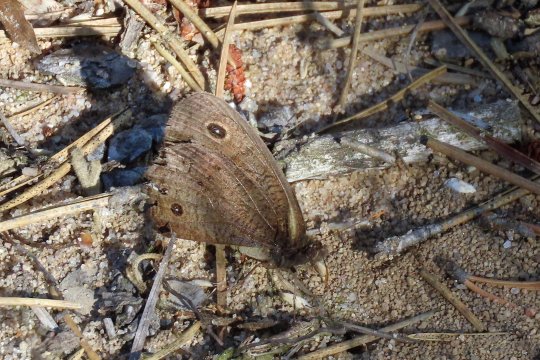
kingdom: Animalia
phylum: Arthropoda
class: Insecta
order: Lepidoptera
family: Nymphalidae
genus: Cercyonis
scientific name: Cercyonis pegala
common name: Common Wood-Nymph
